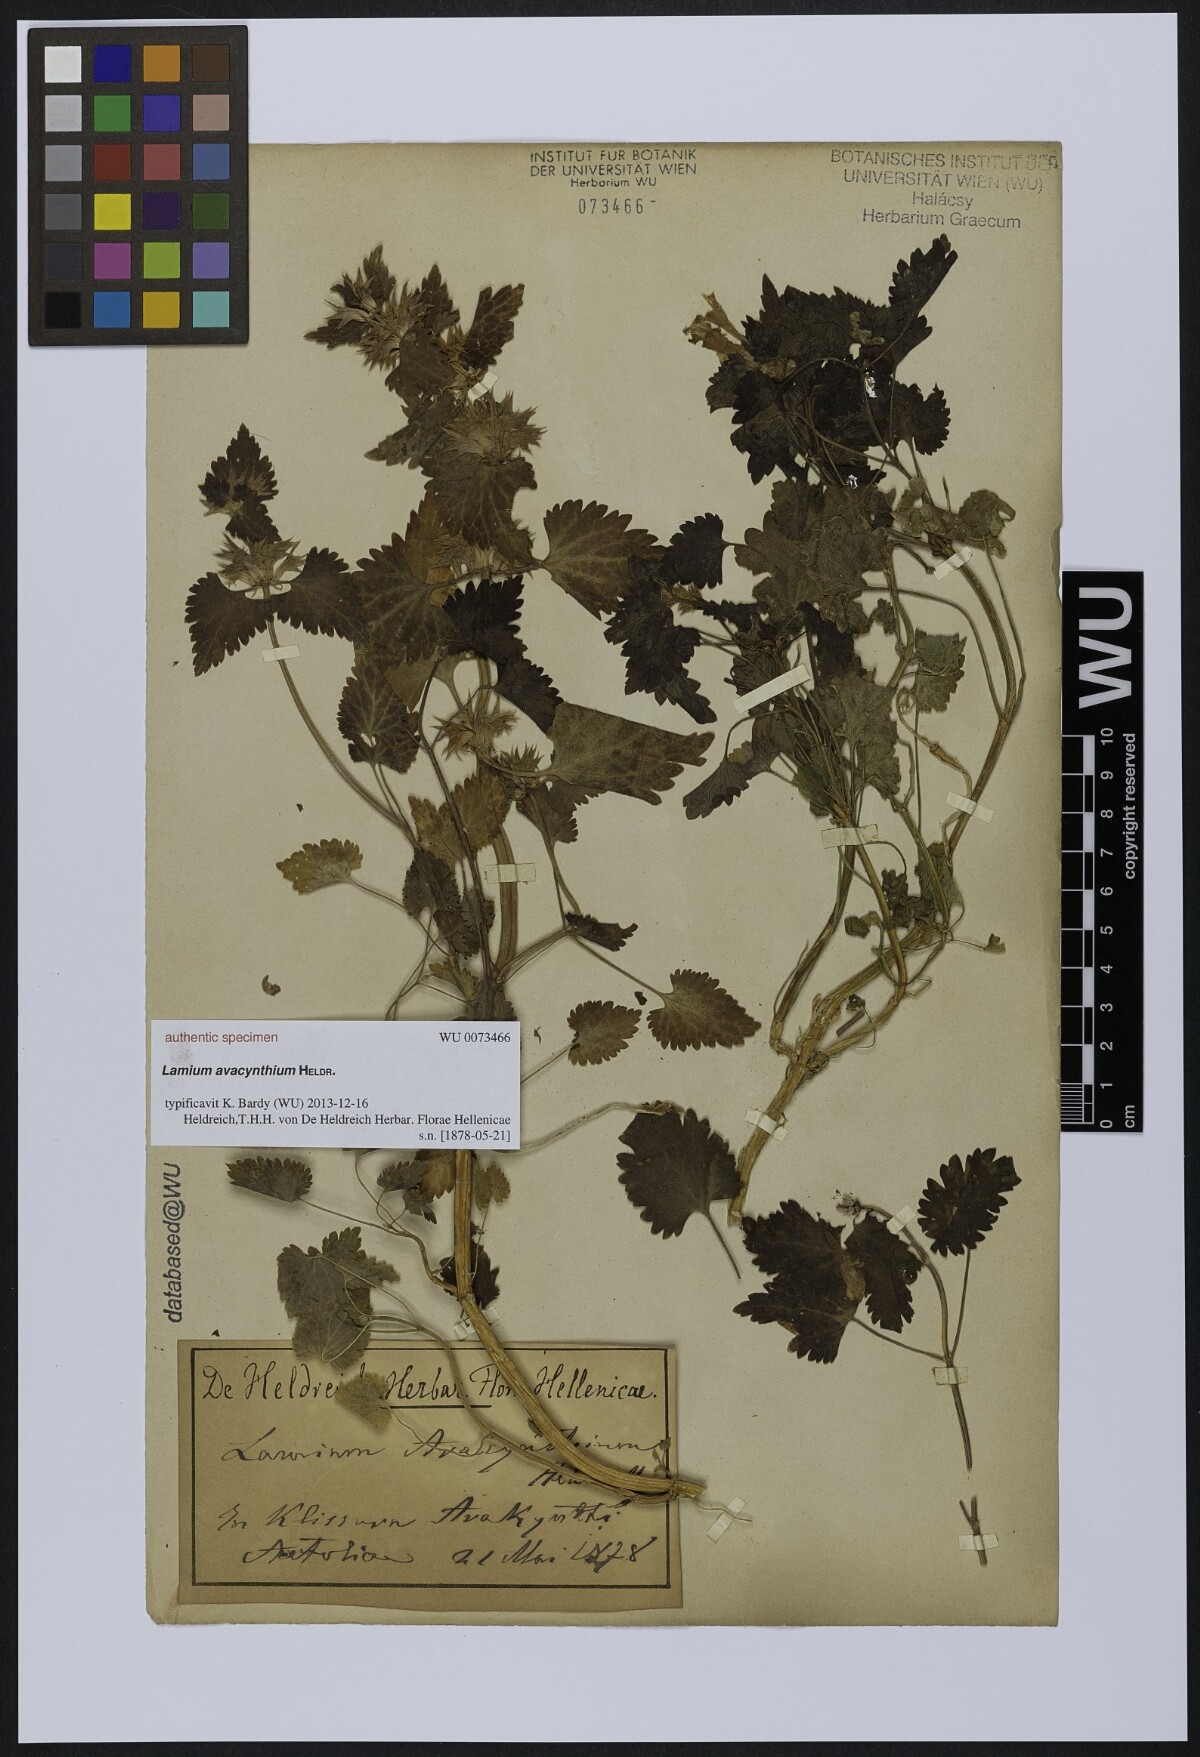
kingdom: Plantae
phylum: Tracheophyta
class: Magnoliopsida
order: Lamiales
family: Lamiaceae
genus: Lamium
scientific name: Lamium
